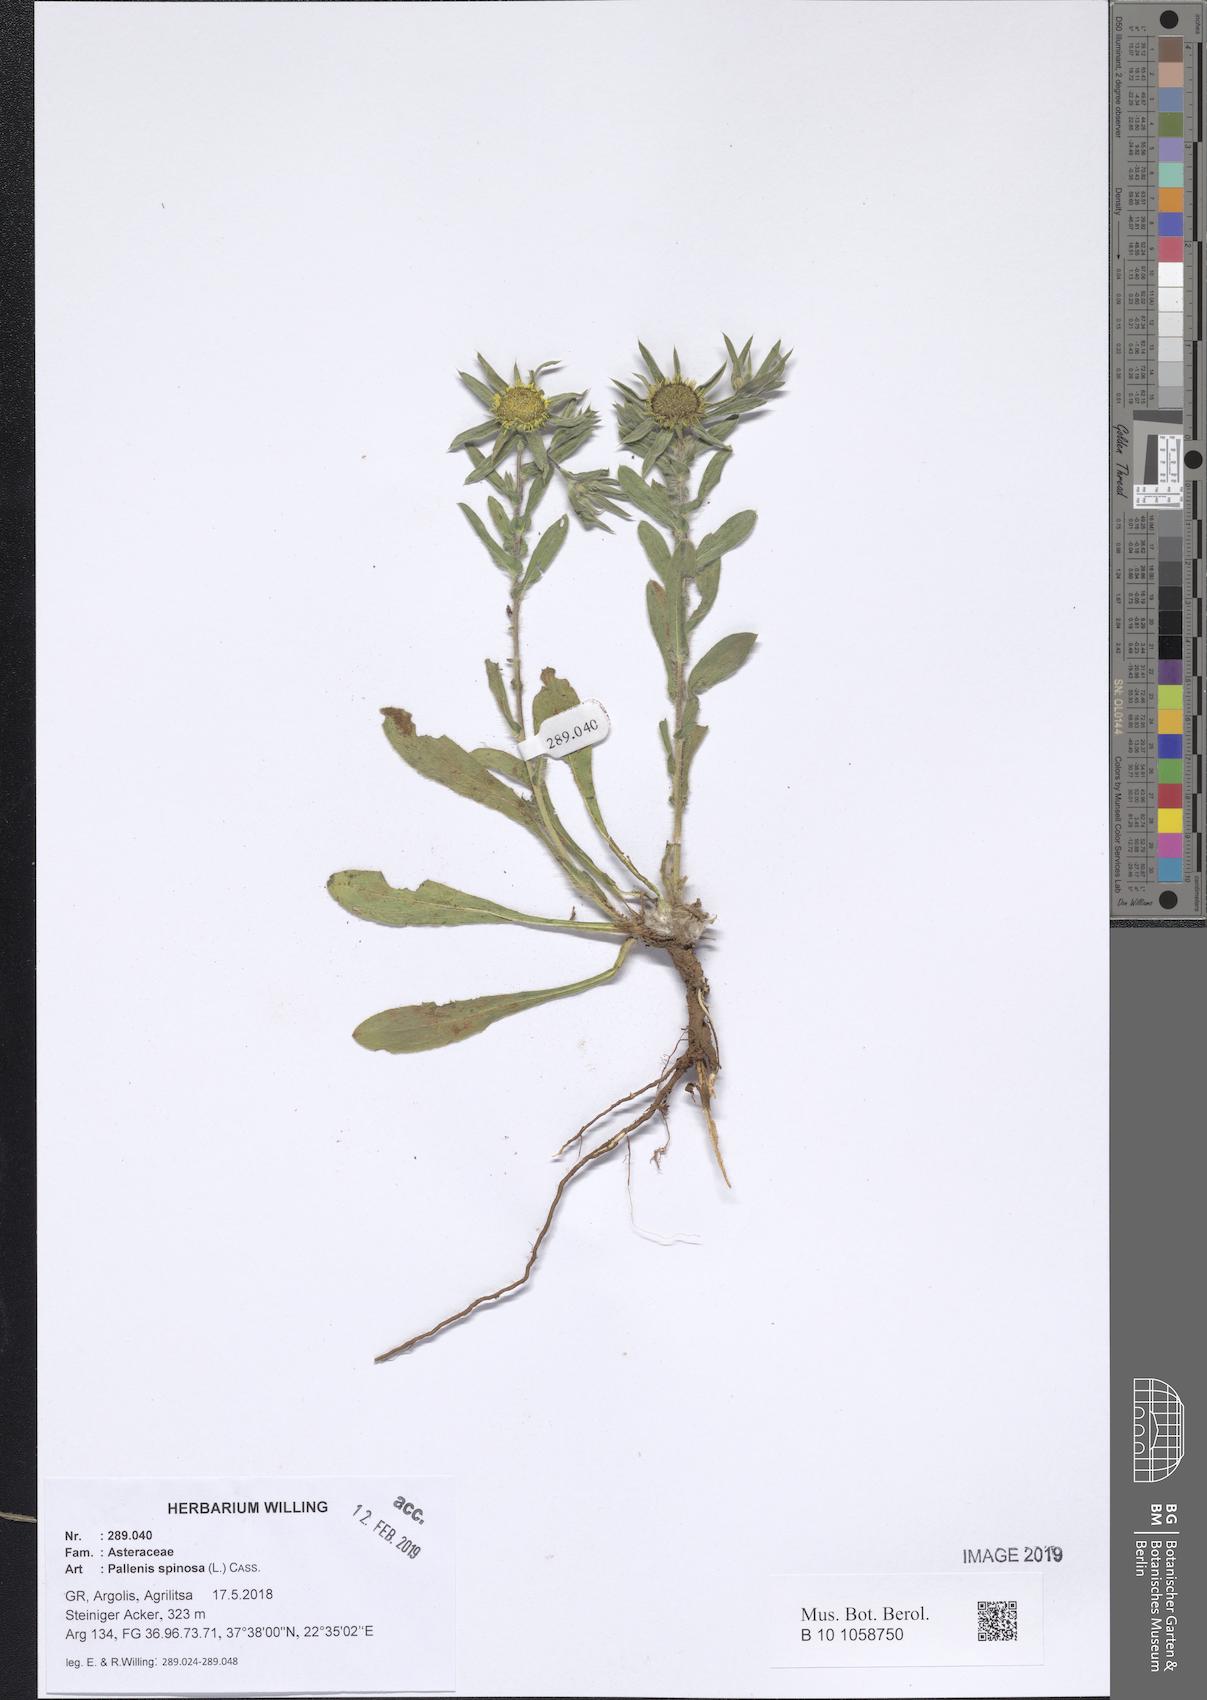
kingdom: Plantae
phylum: Tracheophyta
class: Magnoliopsida
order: Asterales
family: Asteraceae
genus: Pallenis
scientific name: Pallenis spinosa
